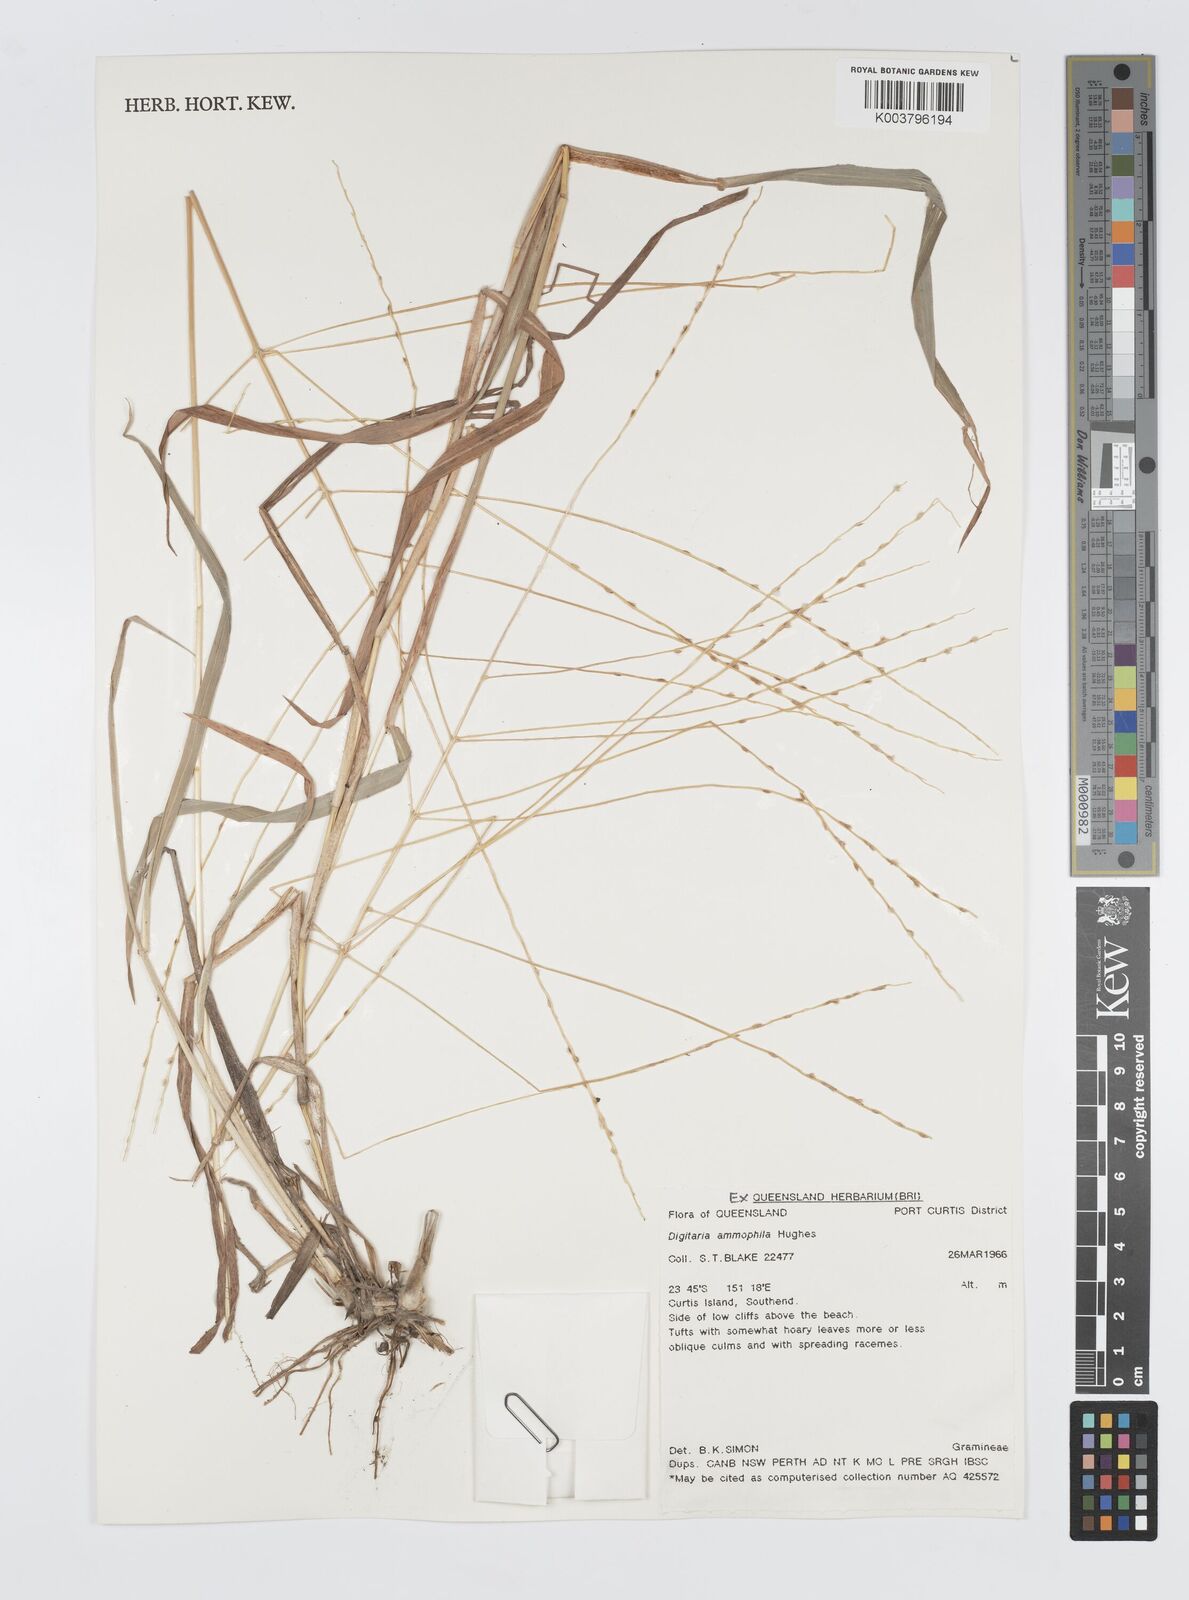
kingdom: Plantae
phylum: Tracheophyta
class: Liliopsida
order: Poales
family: Poaceae
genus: Digitaria
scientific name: Digitaria ammophila
